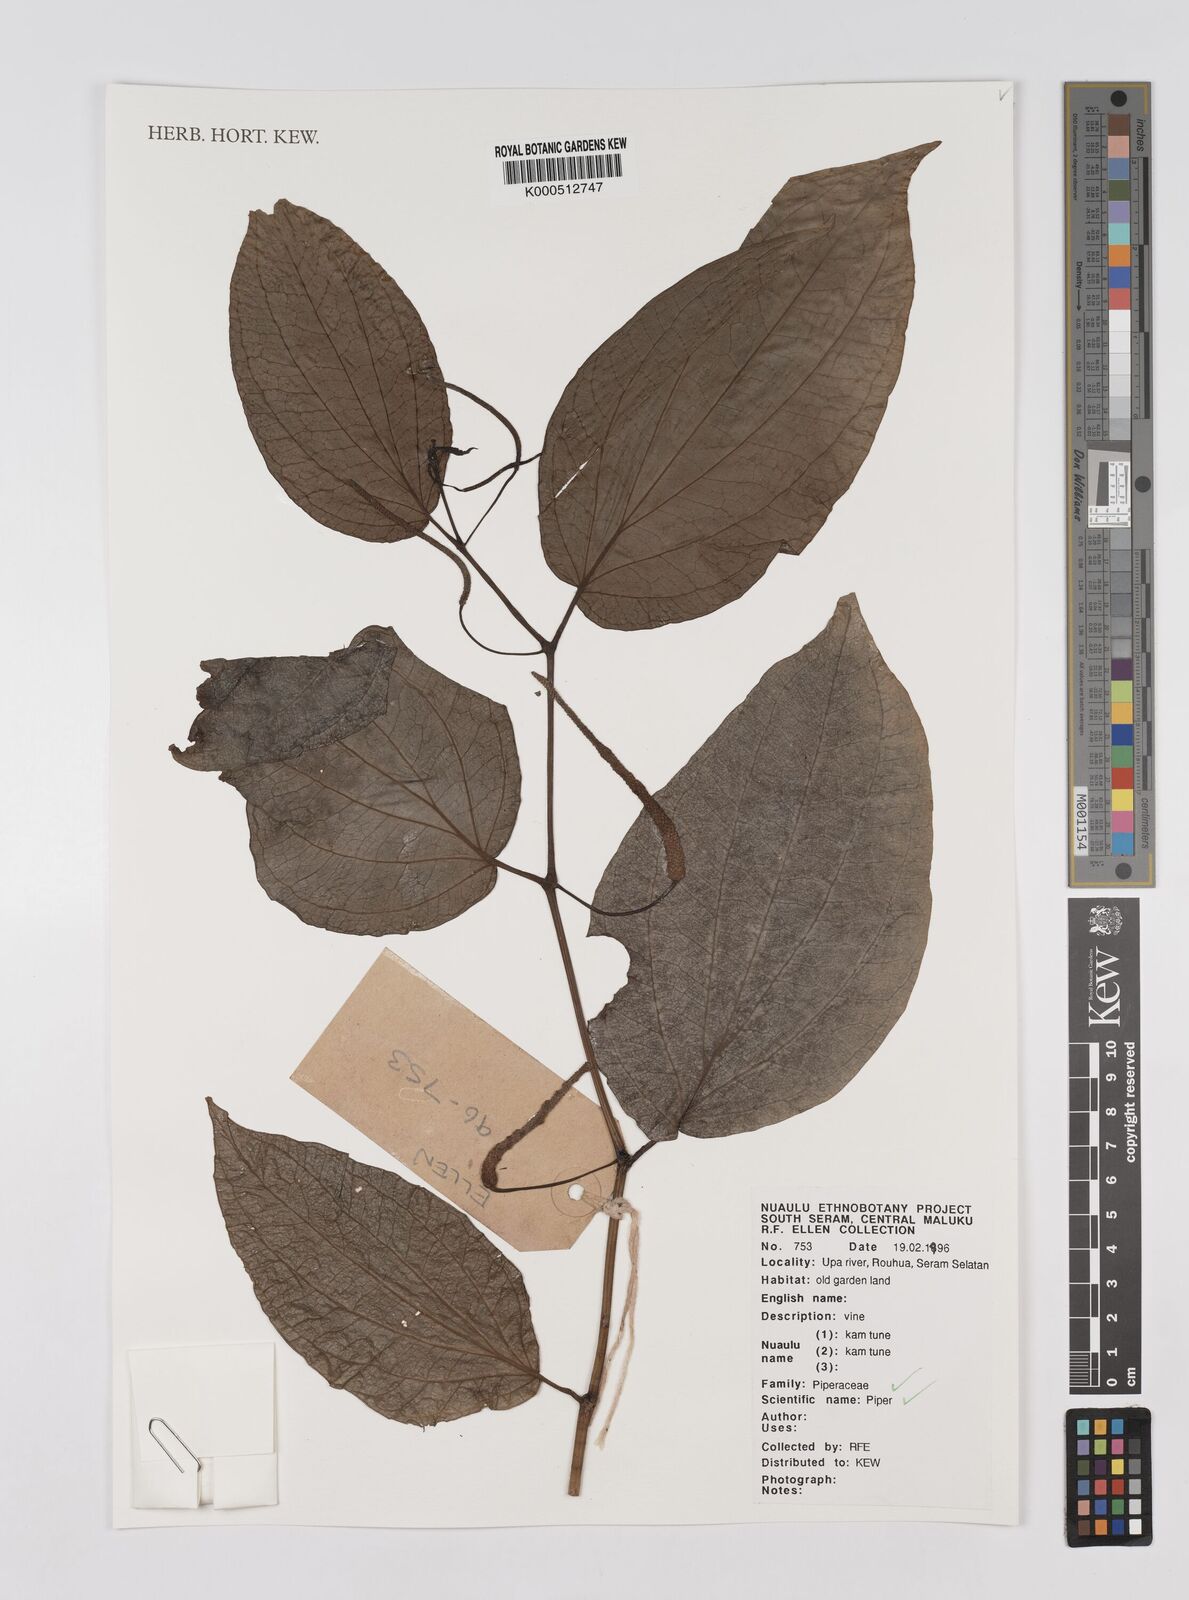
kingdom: Plantae
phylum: Tracheophyta
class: Magnoliopsida
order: Piperales
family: Piperaceae
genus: Piper
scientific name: Piper
